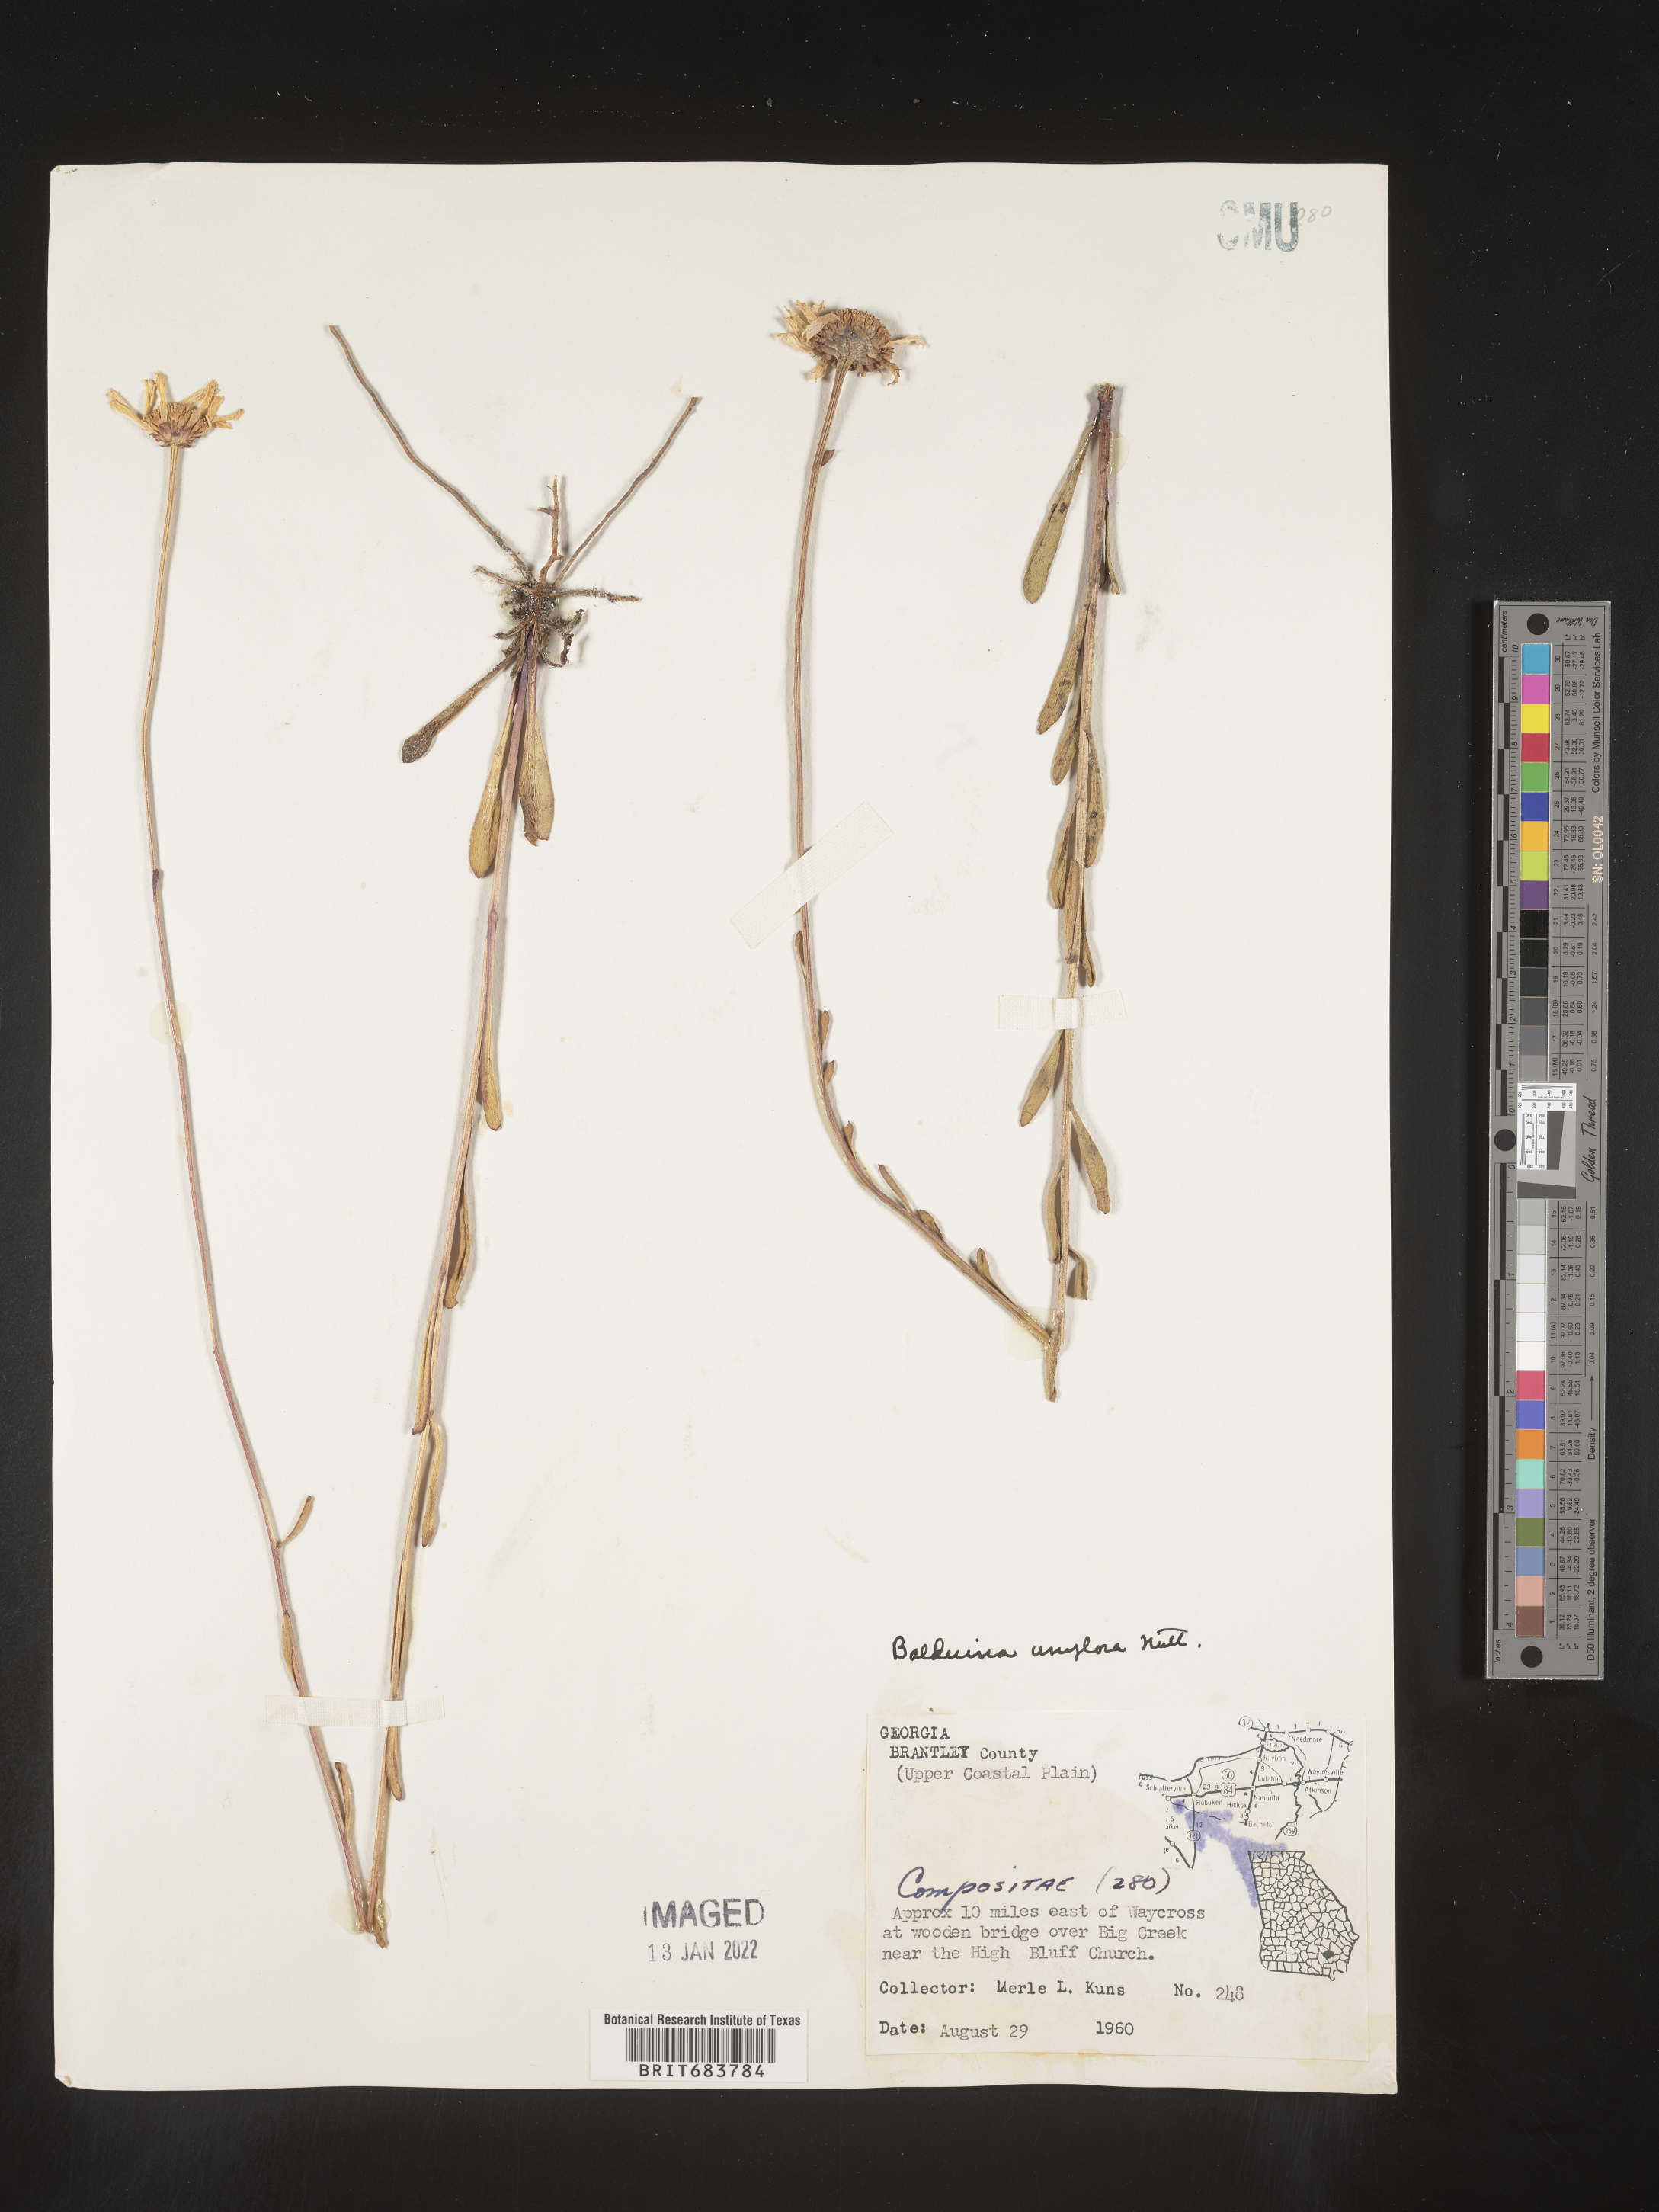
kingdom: Plantae
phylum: Tracheophyta
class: Magnoliopsida
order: Asterales
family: Asteraceae
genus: Balduina
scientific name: Balduina uniflora
